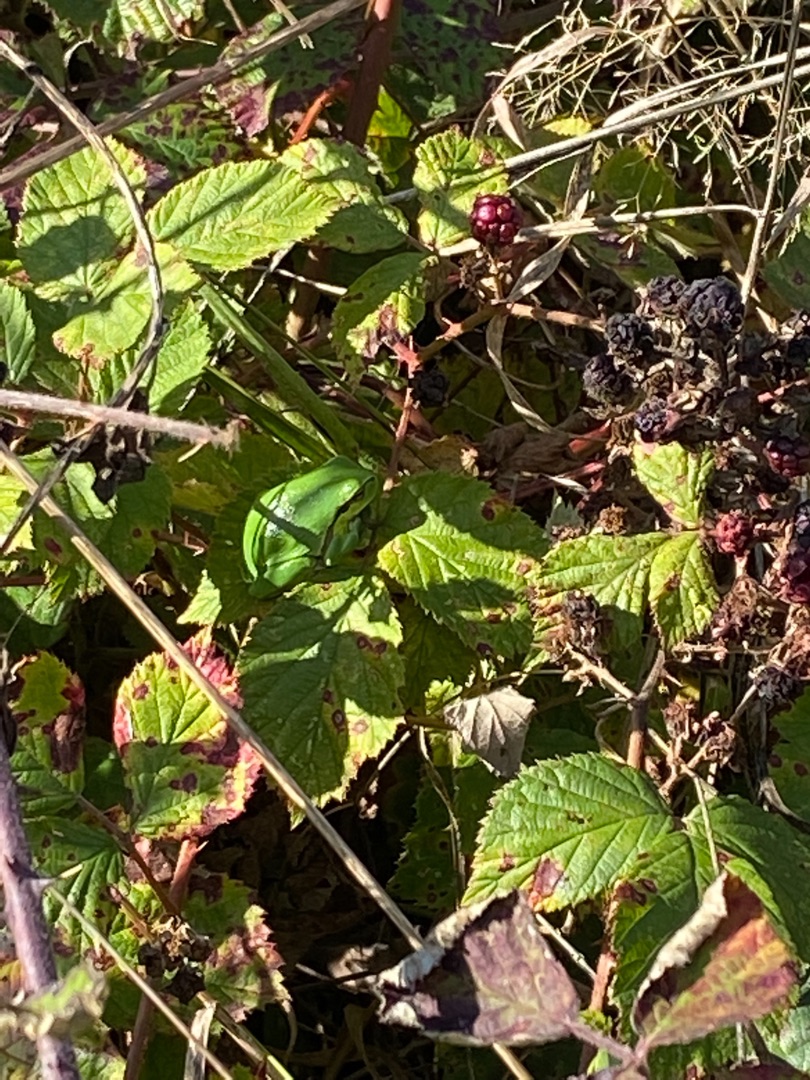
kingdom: Animalia
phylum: Chordata
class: Amphibia
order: Anura
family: Hylidae
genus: Hyla
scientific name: Hyla arborea
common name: Løvfrø
